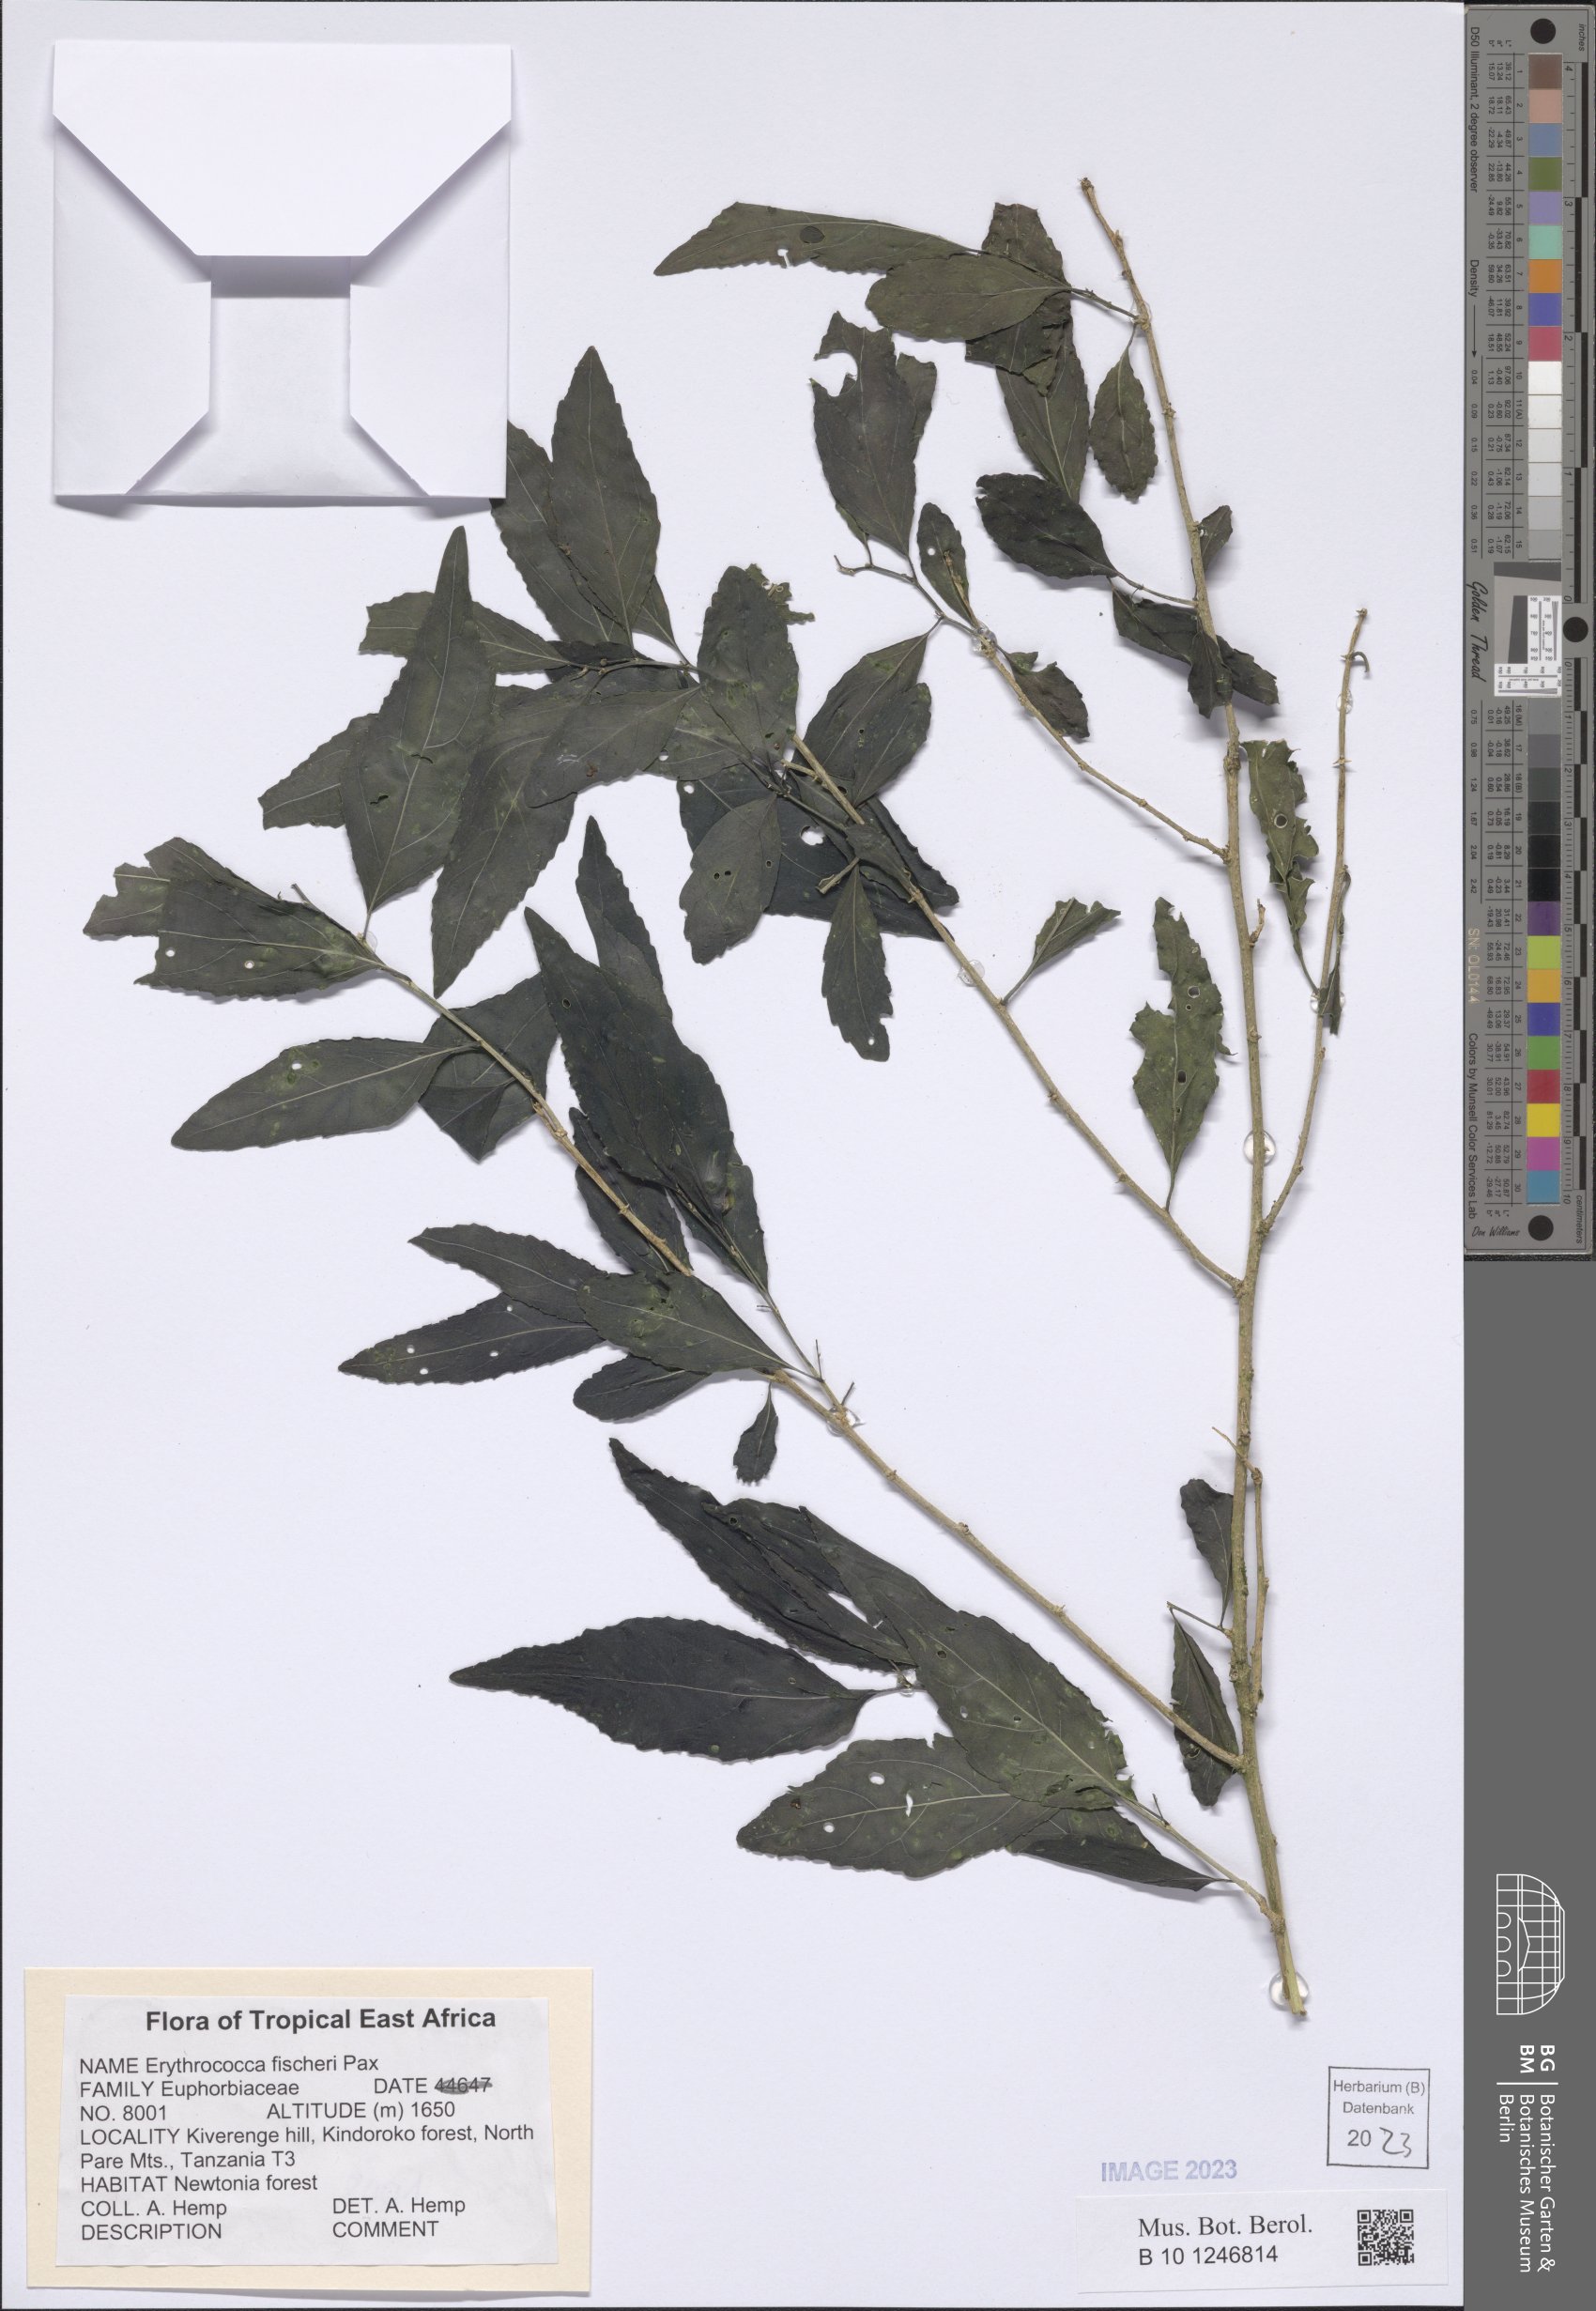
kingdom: Plantae
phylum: Tracheophyta
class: Magnoliopsida
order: Malpighiales
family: Euphorbiaceae
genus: Erythrococca
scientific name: Erythrococca fischeri
